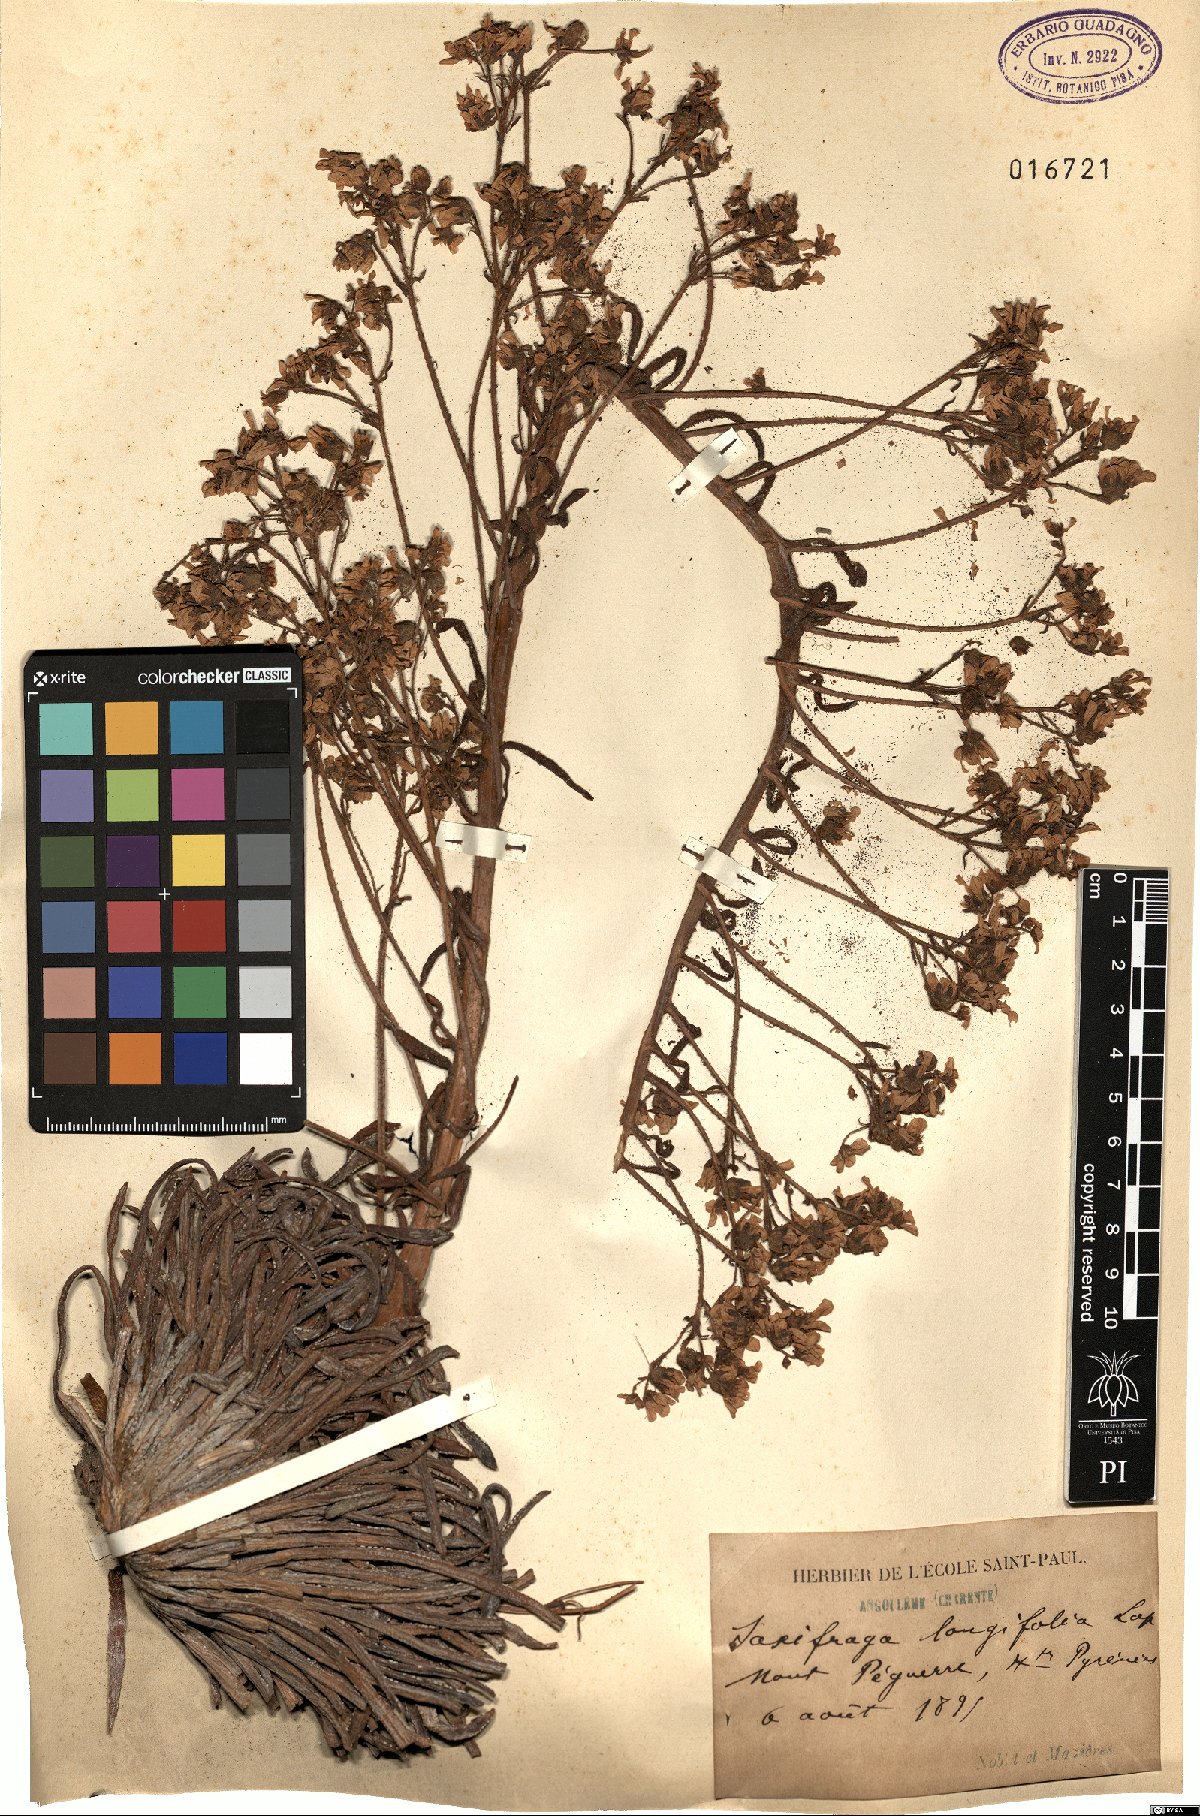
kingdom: Plantae
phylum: Tracheophyta
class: Magnoliopsida
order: Saxifragales
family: Saxifragaceae
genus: Saxifraga
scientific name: Saxifraga longifolia
